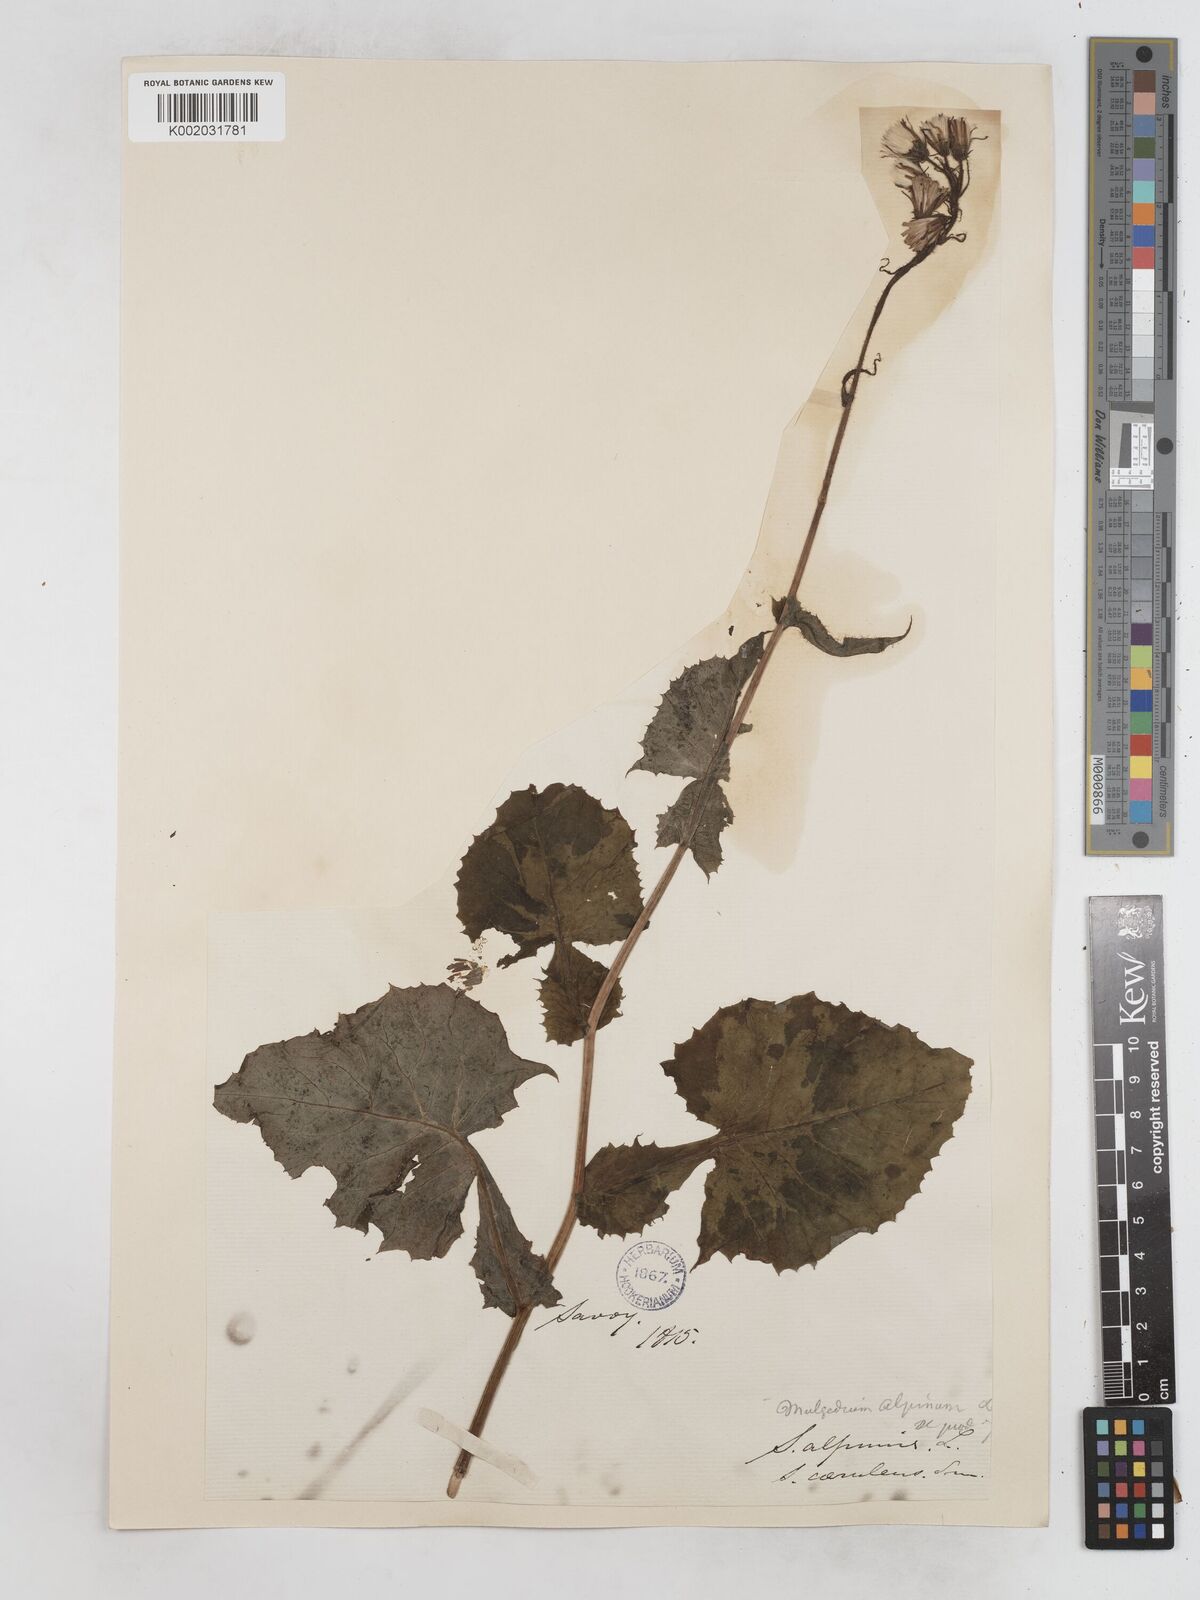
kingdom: Plantae
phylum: Tracheophyta
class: Magnoliopsida
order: Asterales
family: Asteraceae
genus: Cicerbita
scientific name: Cicerbita alpina
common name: Alpine blue-sow-thistle
